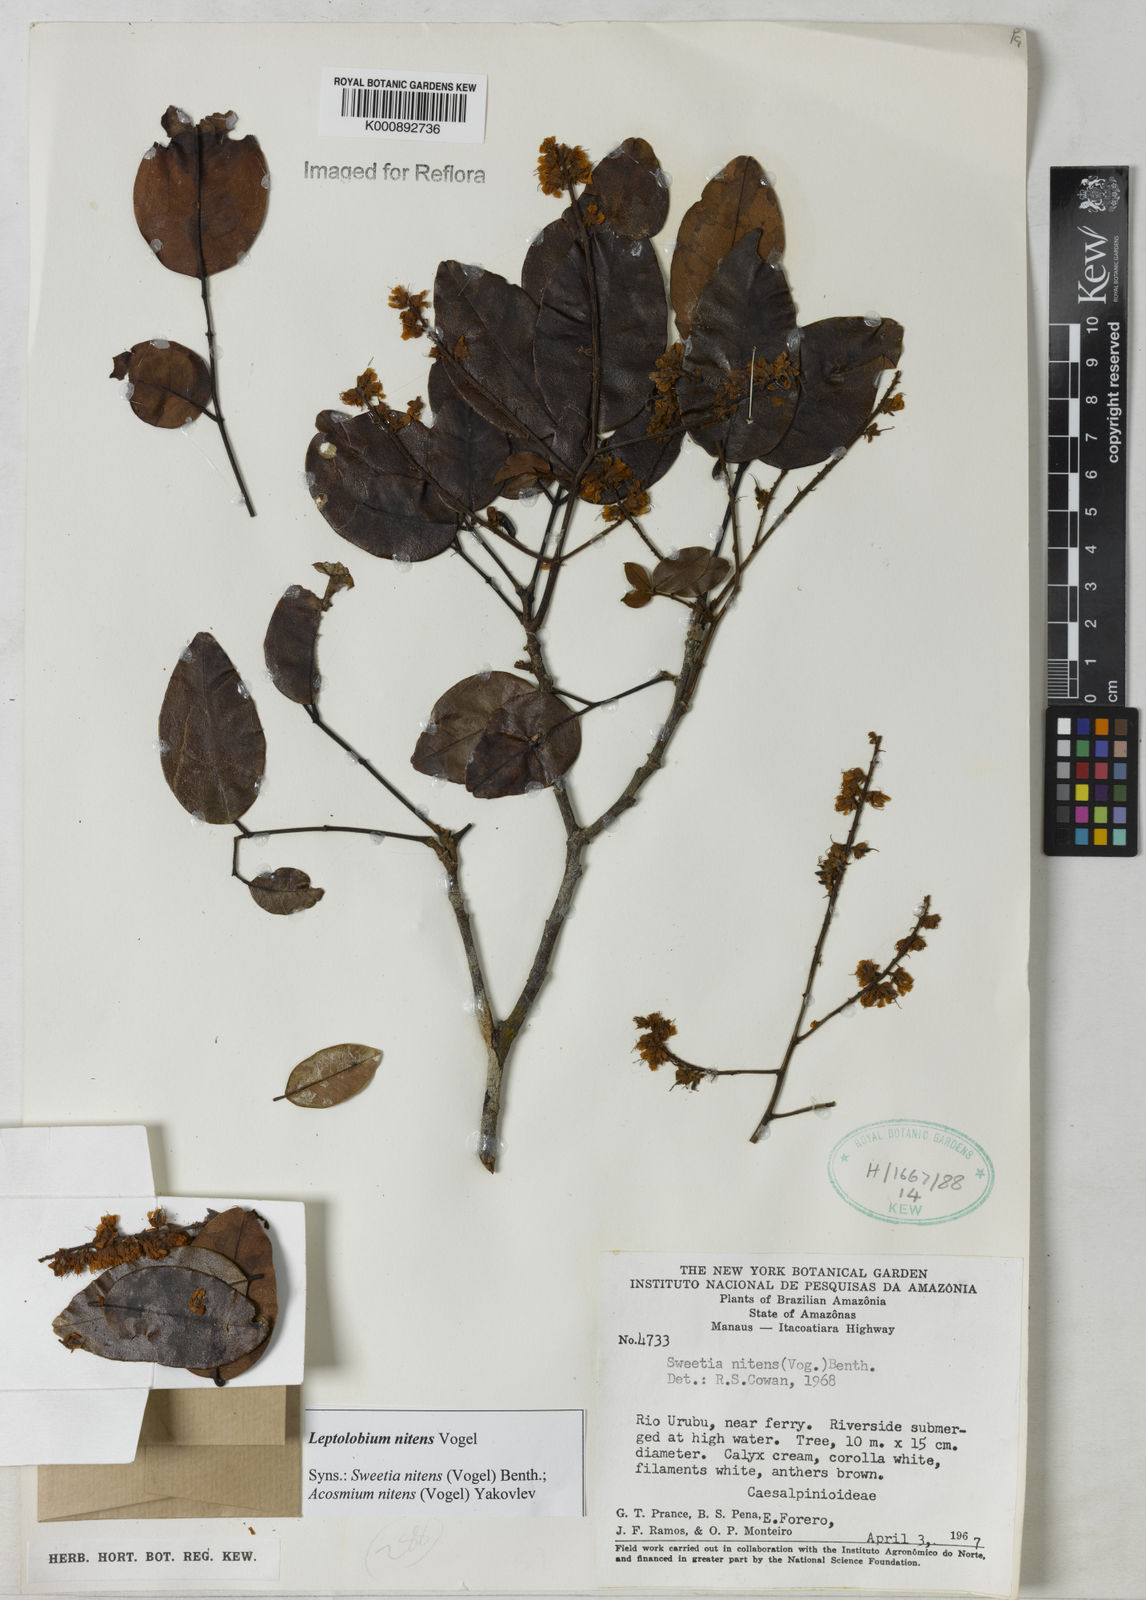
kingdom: Plantae
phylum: Tracheophyta
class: Magnoliopsida
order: Fabales
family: Fabaceae
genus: Leptolobium
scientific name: Leptolobium nitens
